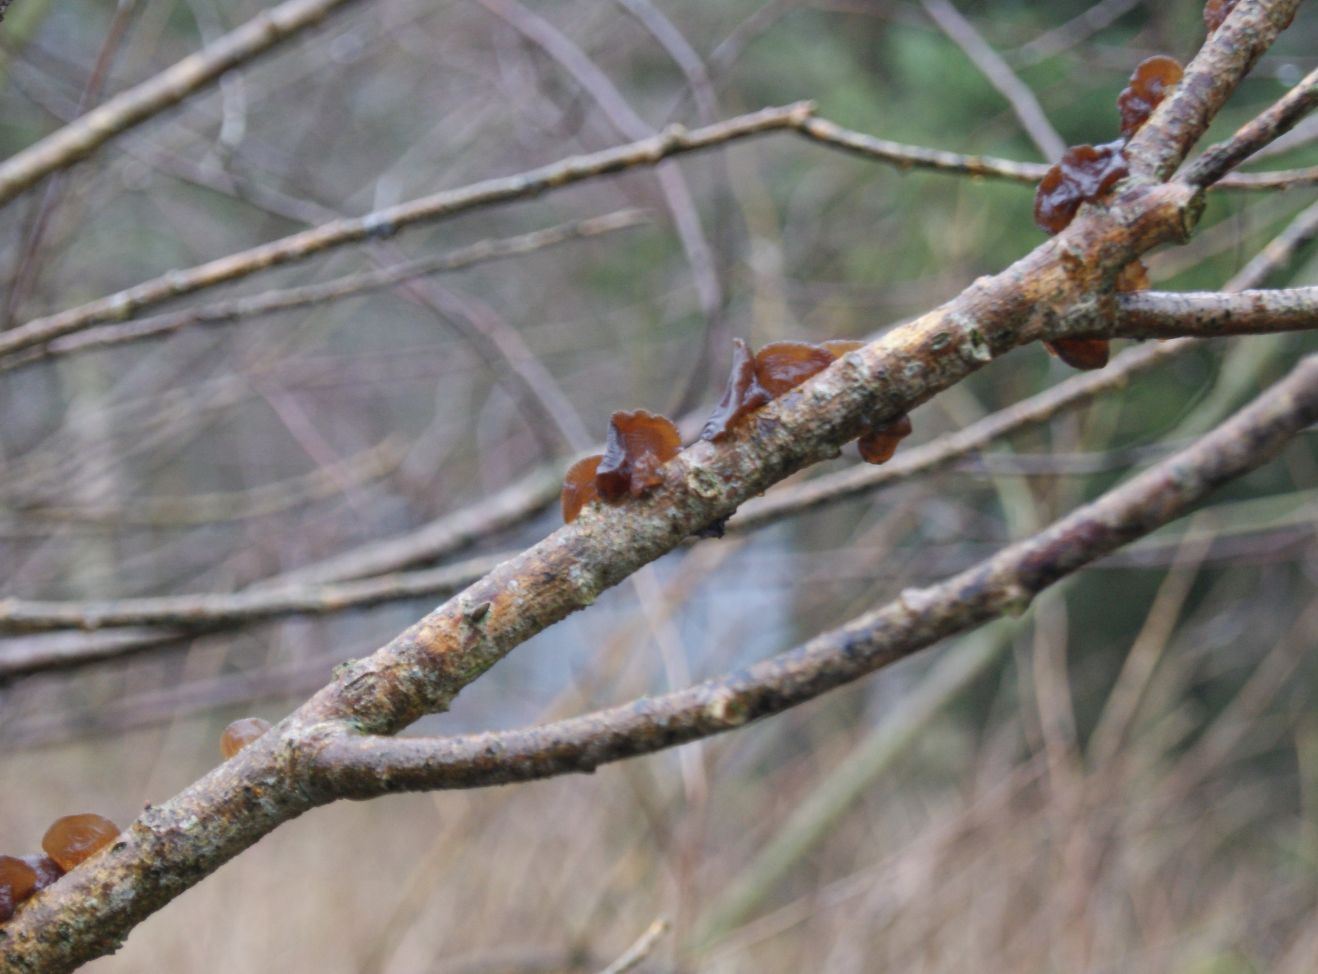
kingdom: Fungi
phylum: Basidiomycota
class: Agaricomycetes
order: Auriculariales
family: Auriculariaceae
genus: Exidia
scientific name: Exidia recisa
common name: pile-bævretop
